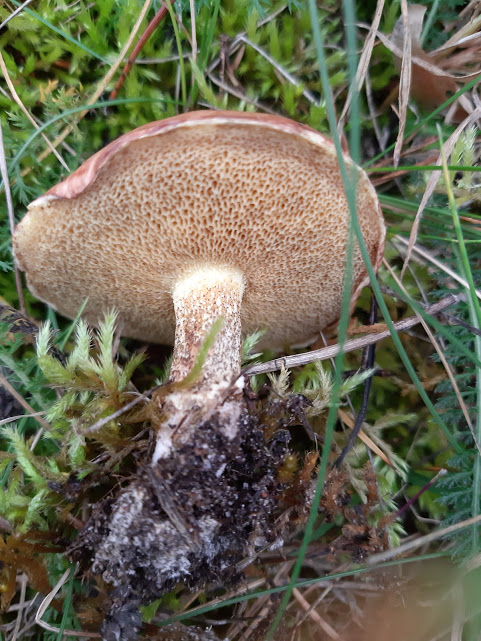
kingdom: Fungi
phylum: Basidiomycota
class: Agaricomycetes
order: Boletales
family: Suillaceae
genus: Suillus
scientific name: Suillus bovinus
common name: grovporet slimrørhat
